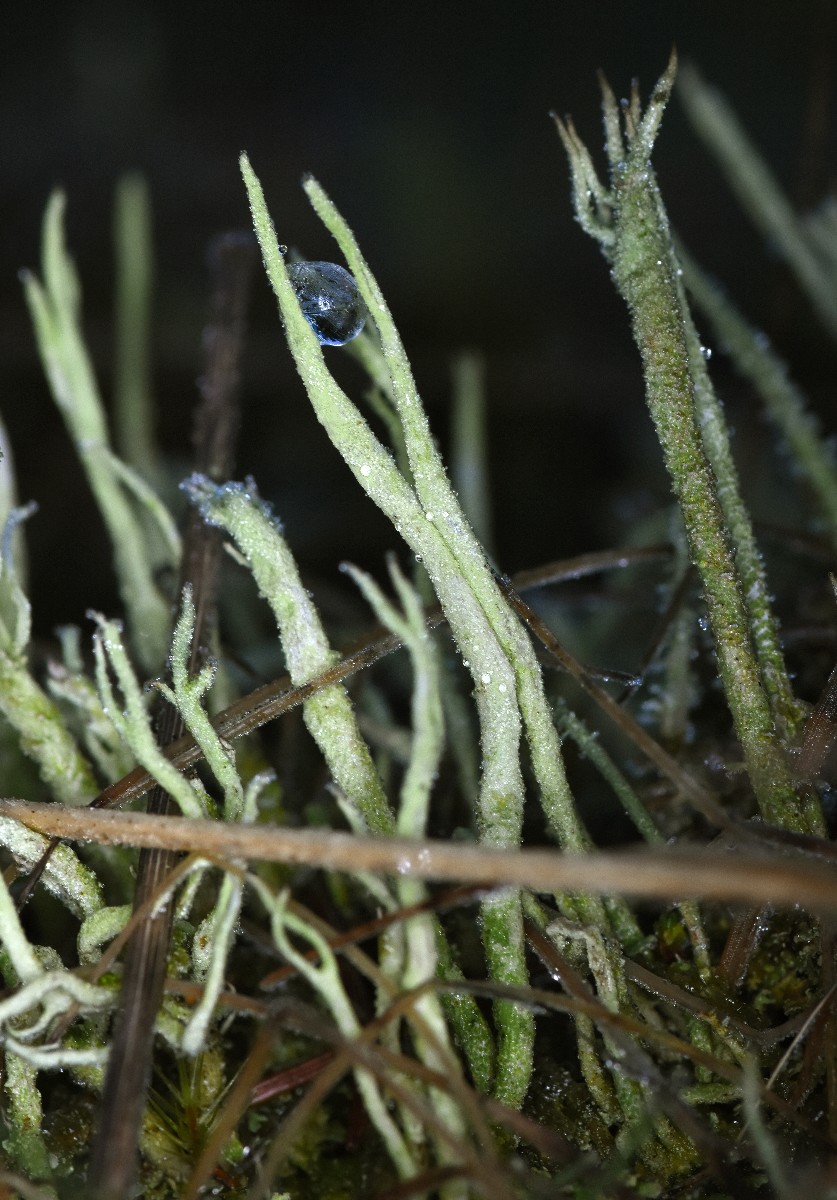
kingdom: Fungi
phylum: Ascomycota
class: Lecanoromycetes
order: Lecanorales
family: Cladoniaceae
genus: Cladonia
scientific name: Cladonia glauca
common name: grågrøn bægerlav
